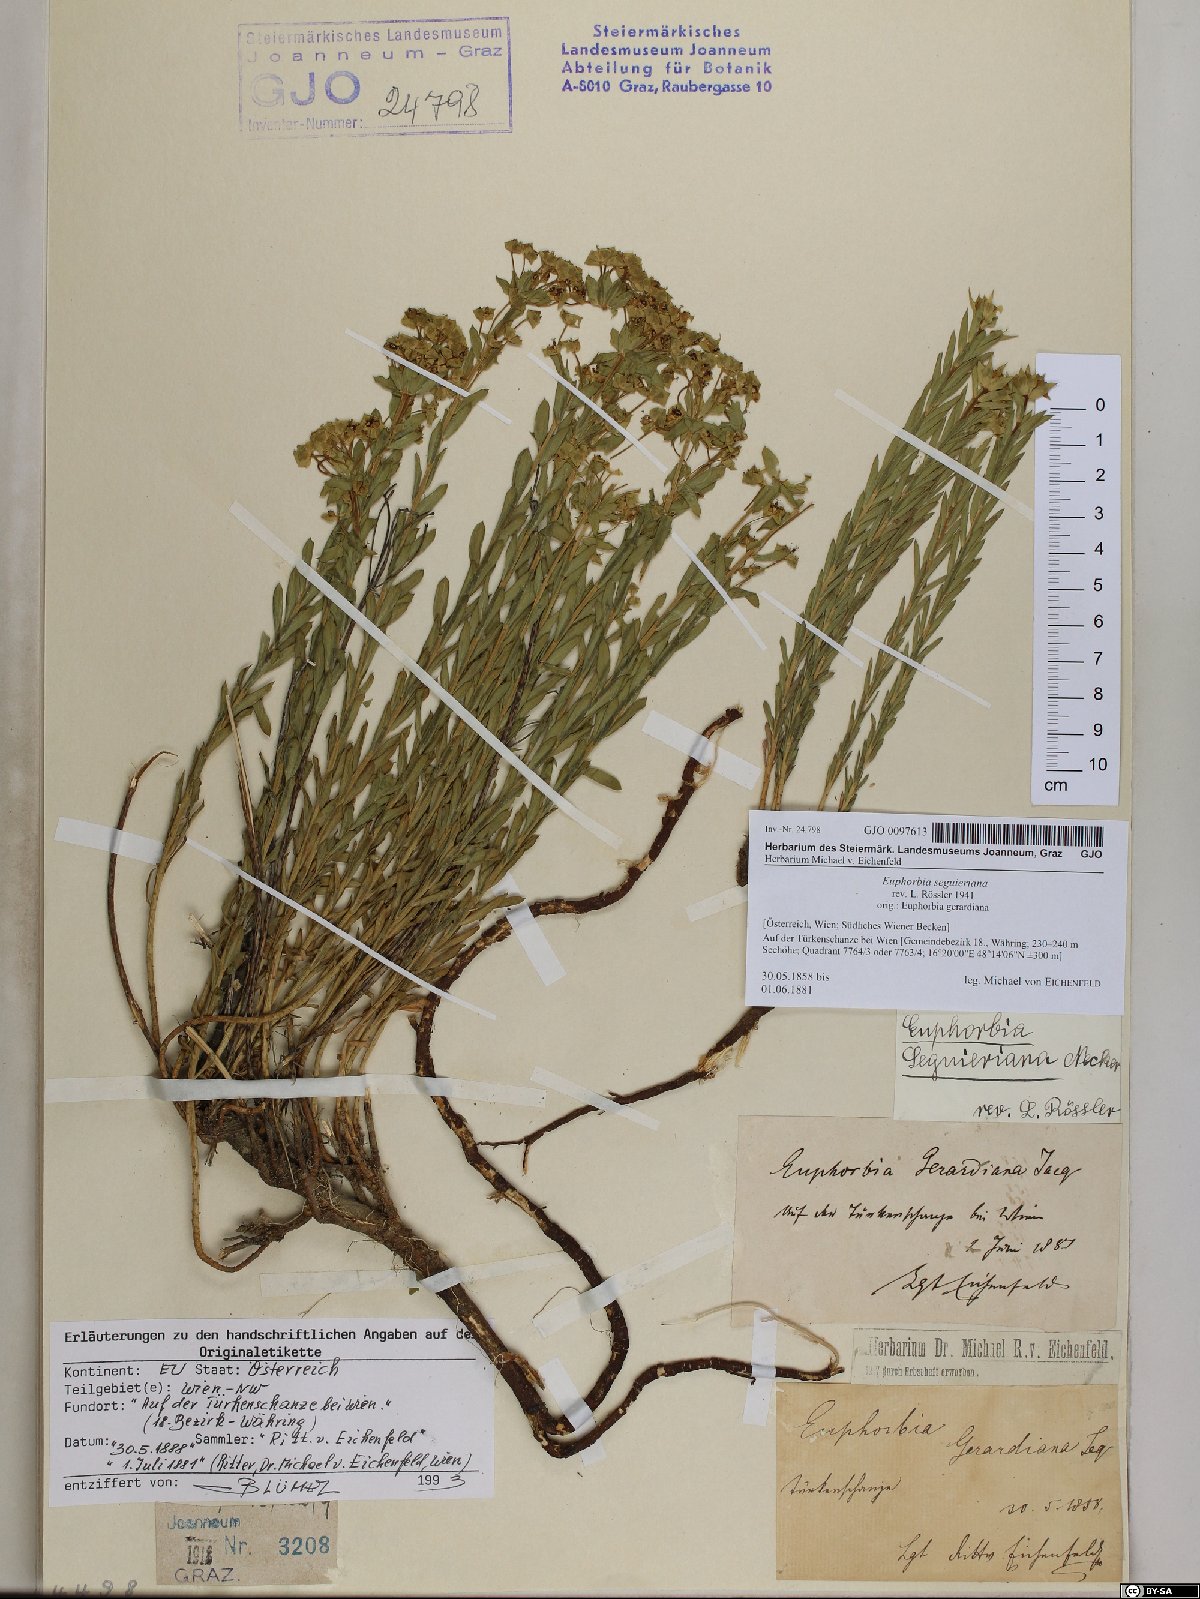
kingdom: Plantae
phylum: Tracheophyta
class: Magnoliopsida
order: Malpighiales
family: Euphorbiaceae
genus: Euphorbia
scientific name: Euphorbia seguieriana
